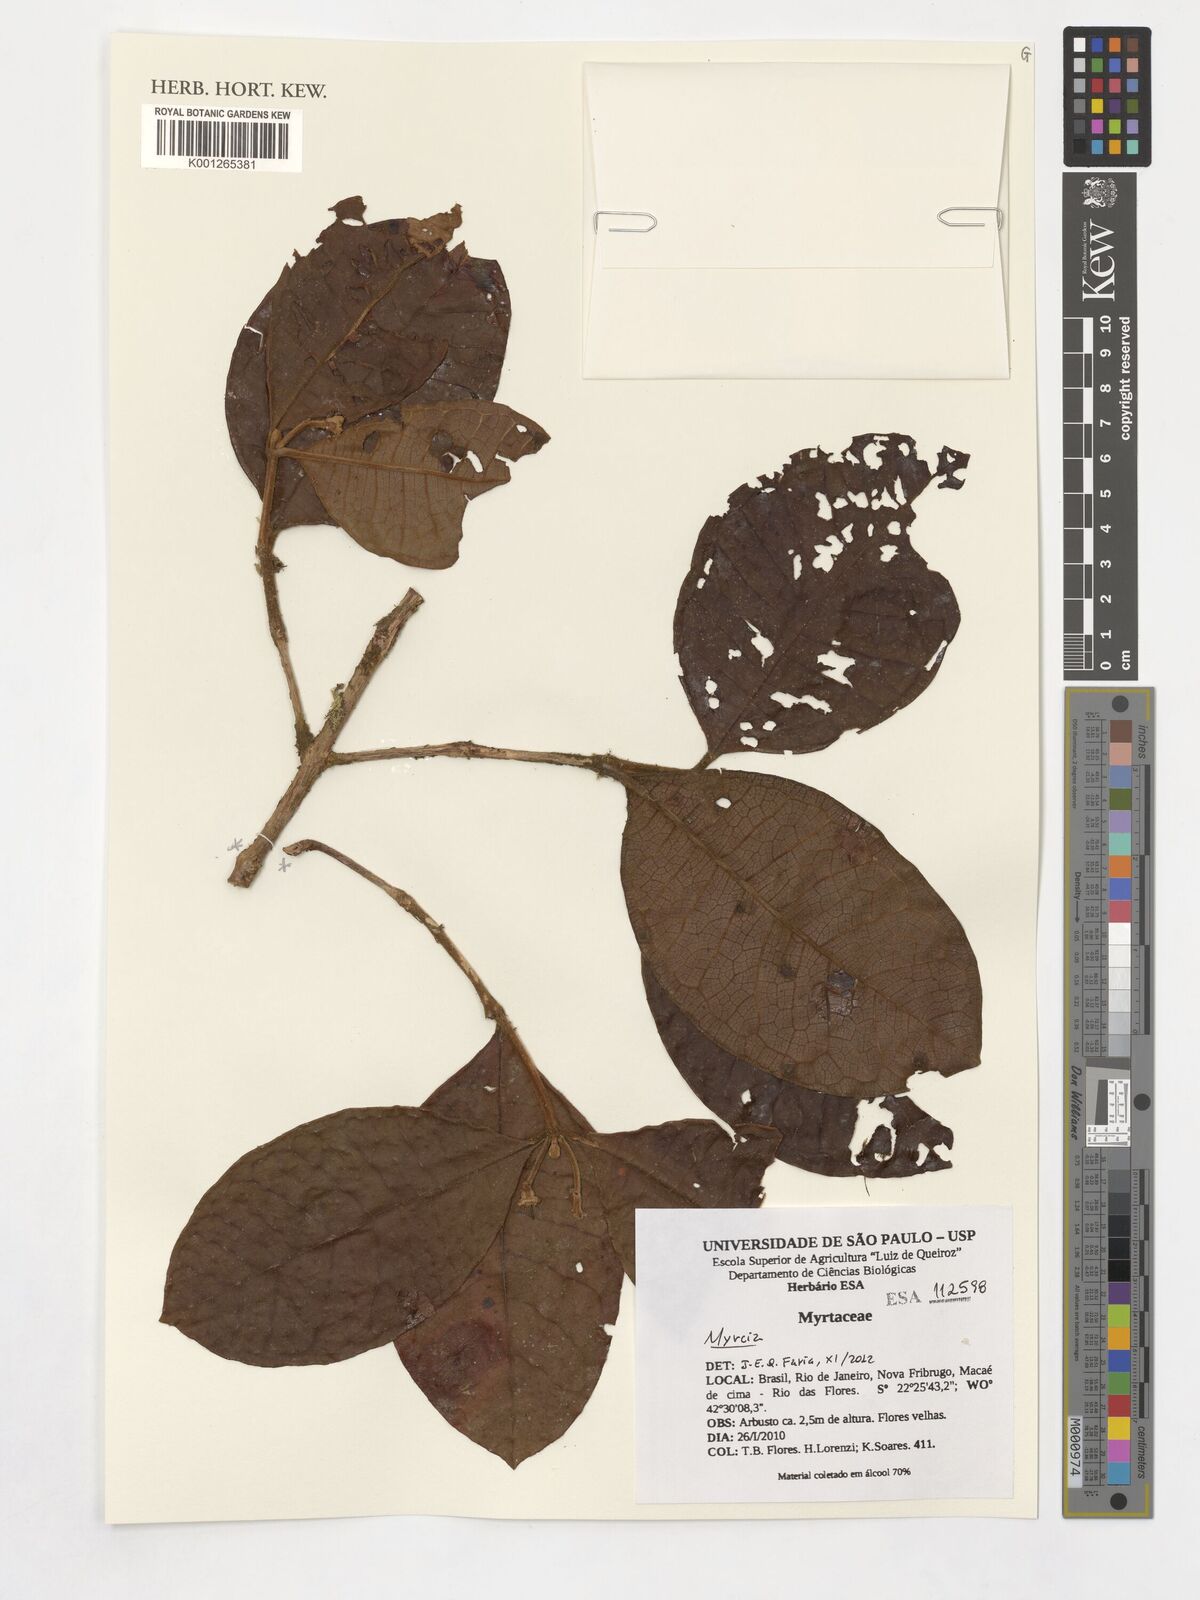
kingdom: Plantae
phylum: Tracheophyta
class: Magnoliopsida
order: Myrtales
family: Myrtaceae
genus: Myrcia
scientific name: Myrcia
